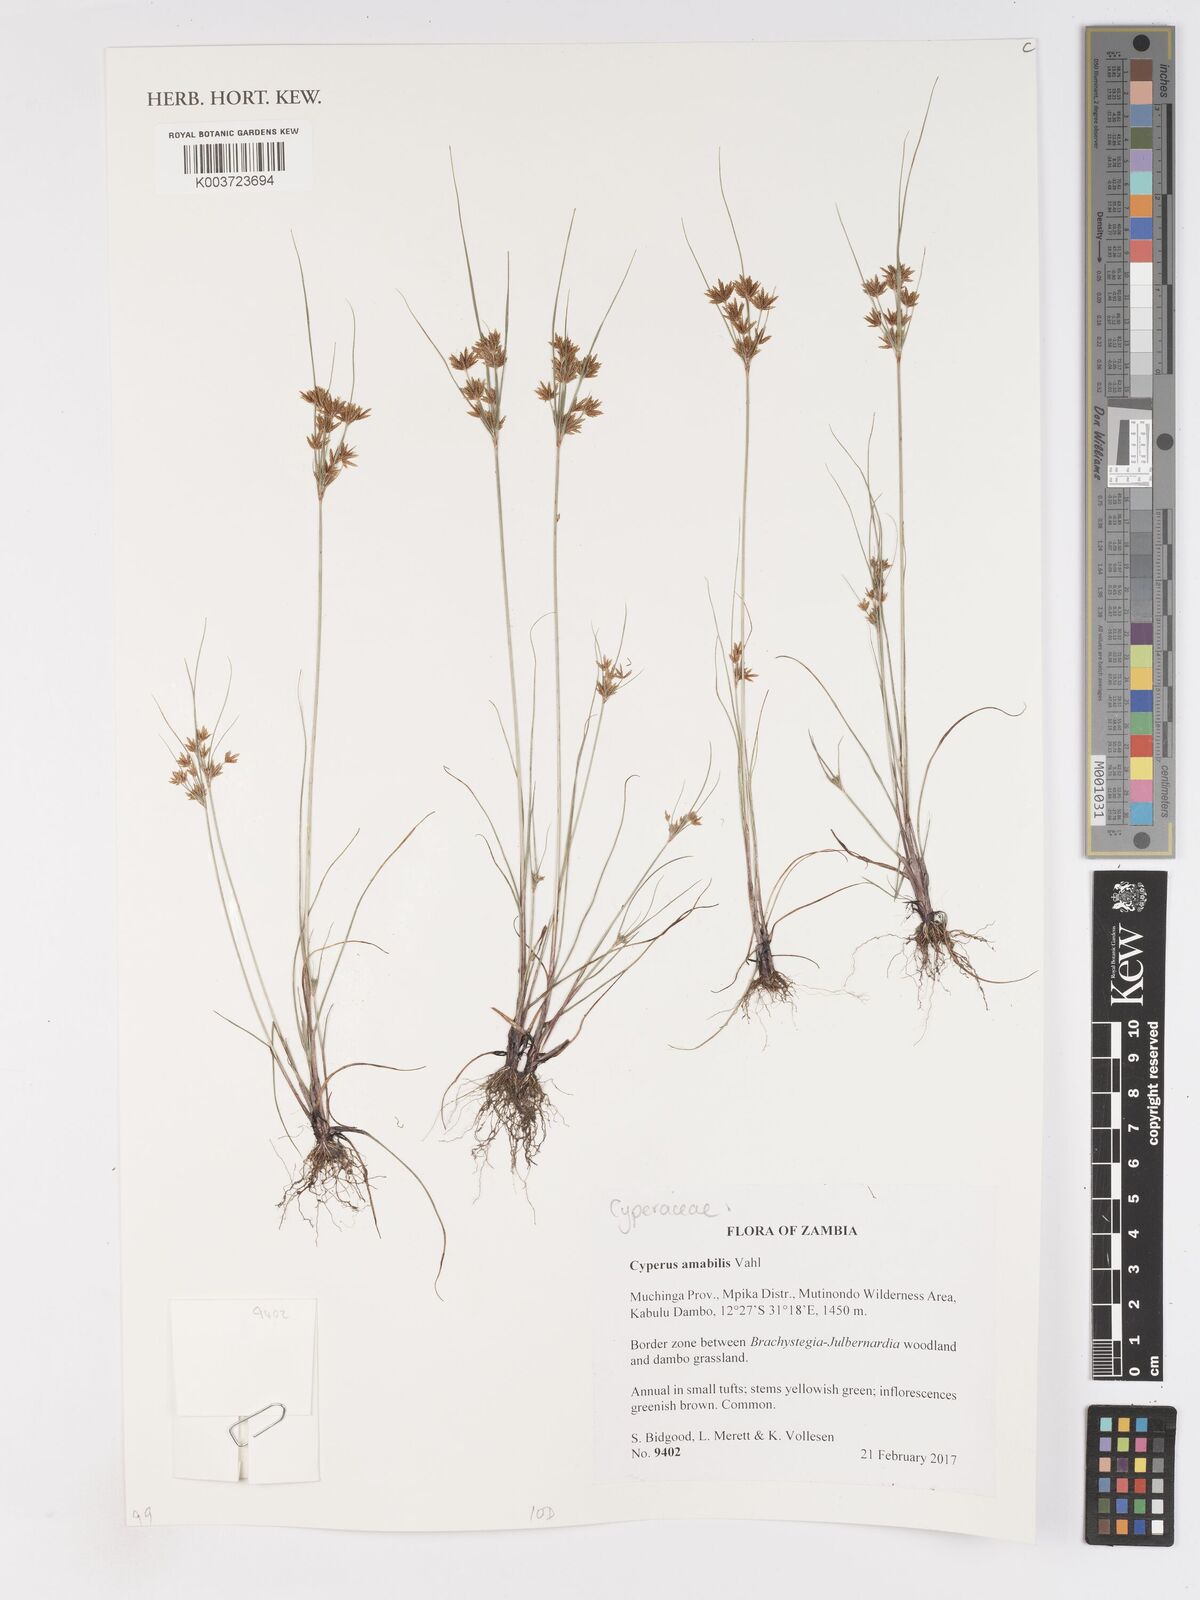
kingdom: Plantae
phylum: Tracheophyta
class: Liliopsida
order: Poales
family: Cyperaceae
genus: Cyperus
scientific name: Cyperus amabilis
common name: Foothill flat sedge
